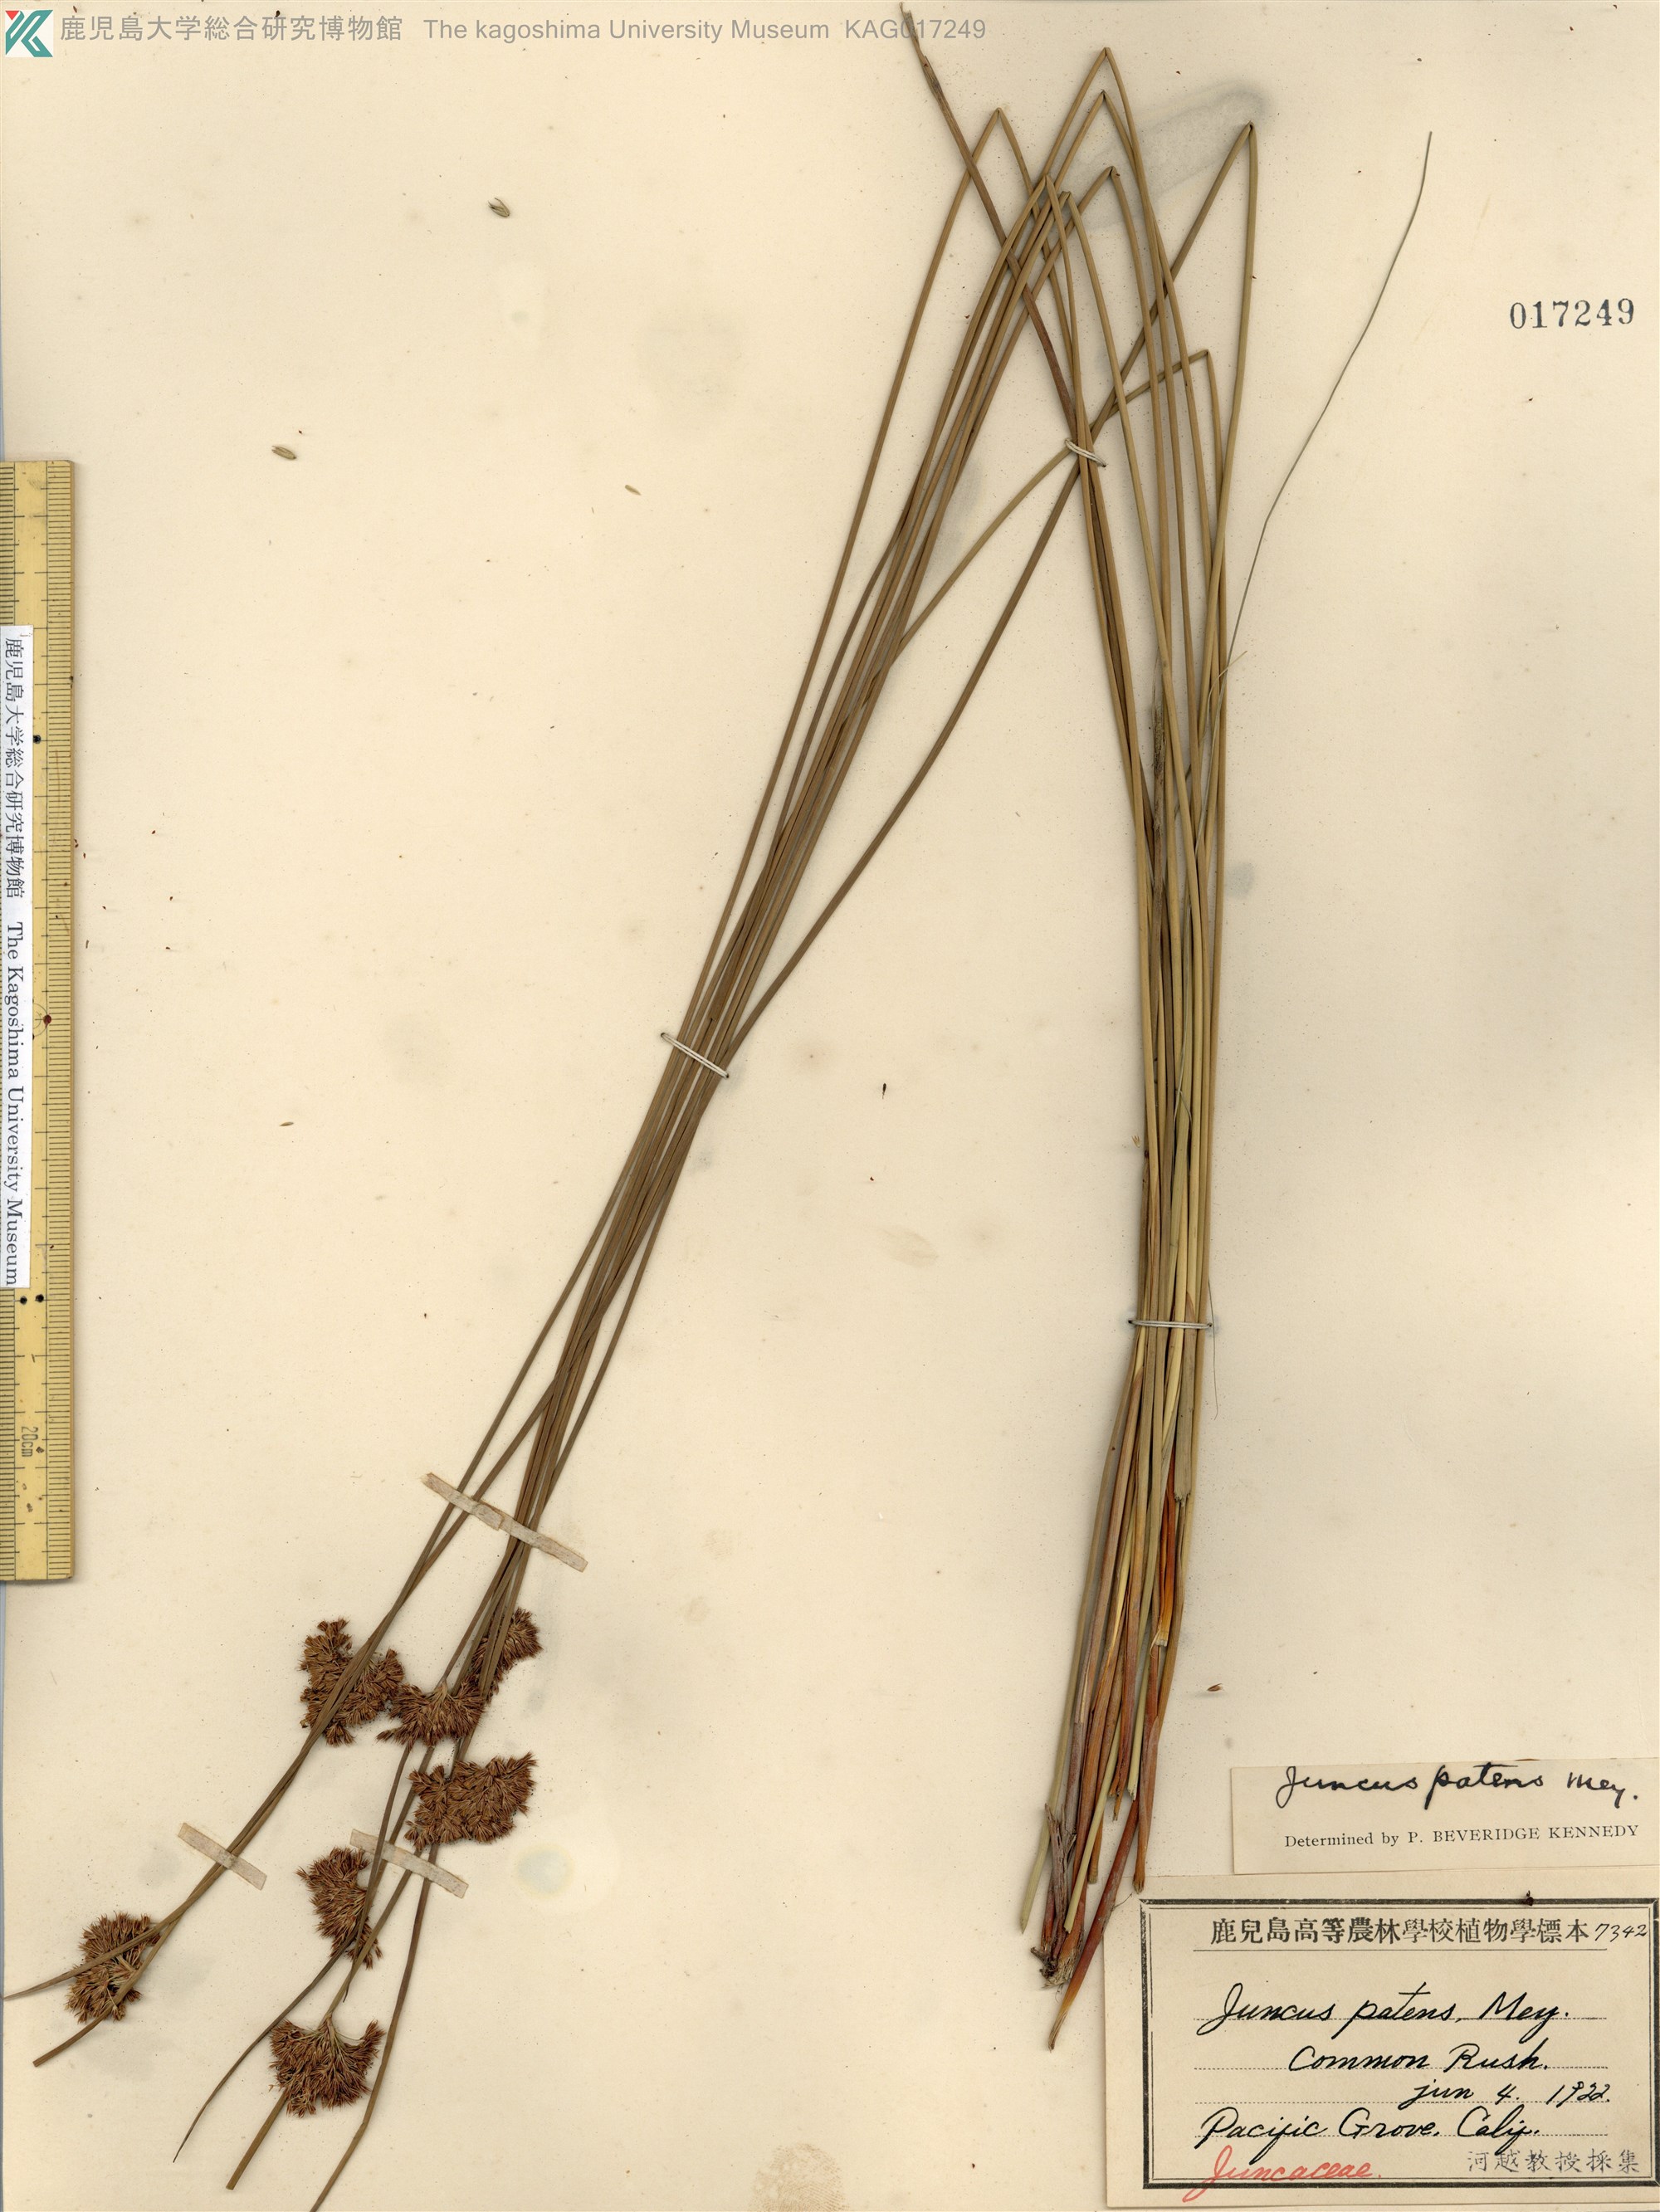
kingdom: Plantae
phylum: Tracheophyta
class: Liliopsida
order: Poales
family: Juncaceae
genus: Juncus
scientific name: Juncus patens
